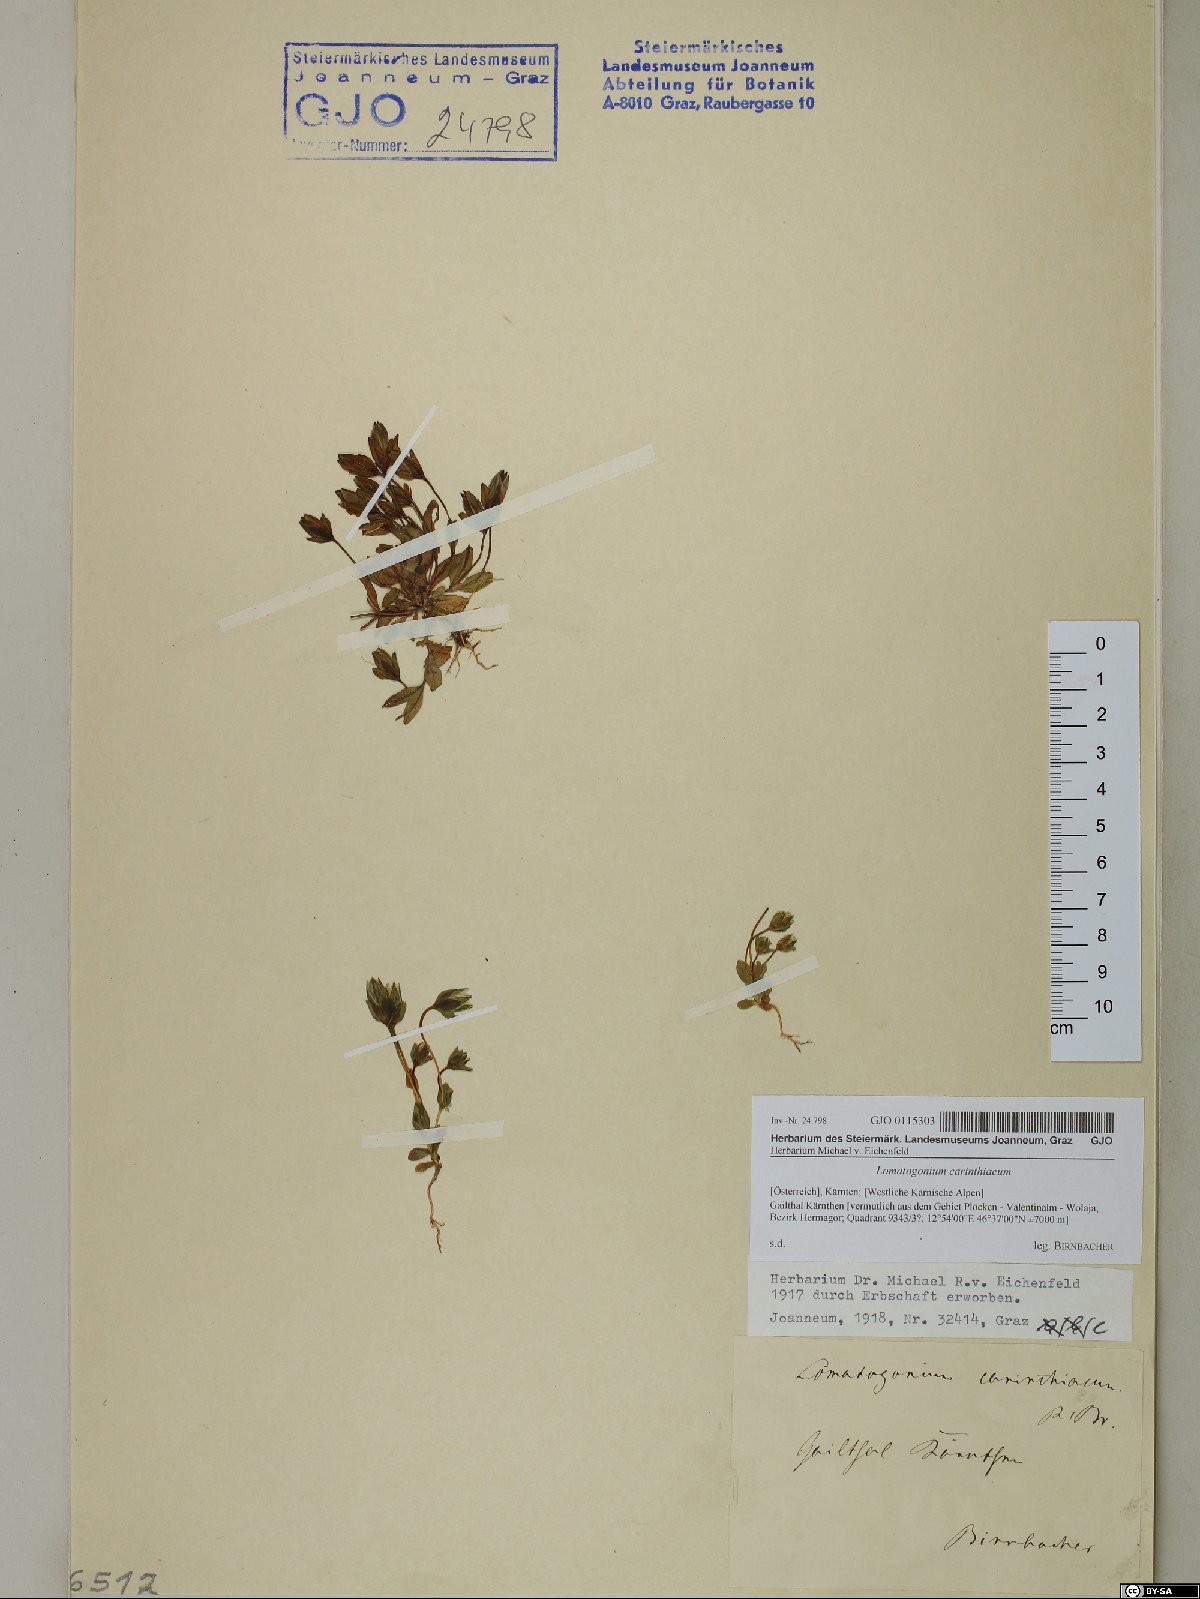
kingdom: Plantae
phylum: Tracheophyta
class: Magnoliopsida
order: Gentianales
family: Gentianaceae
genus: Lomatogonium
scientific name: Lomatogonium carinthiacum
